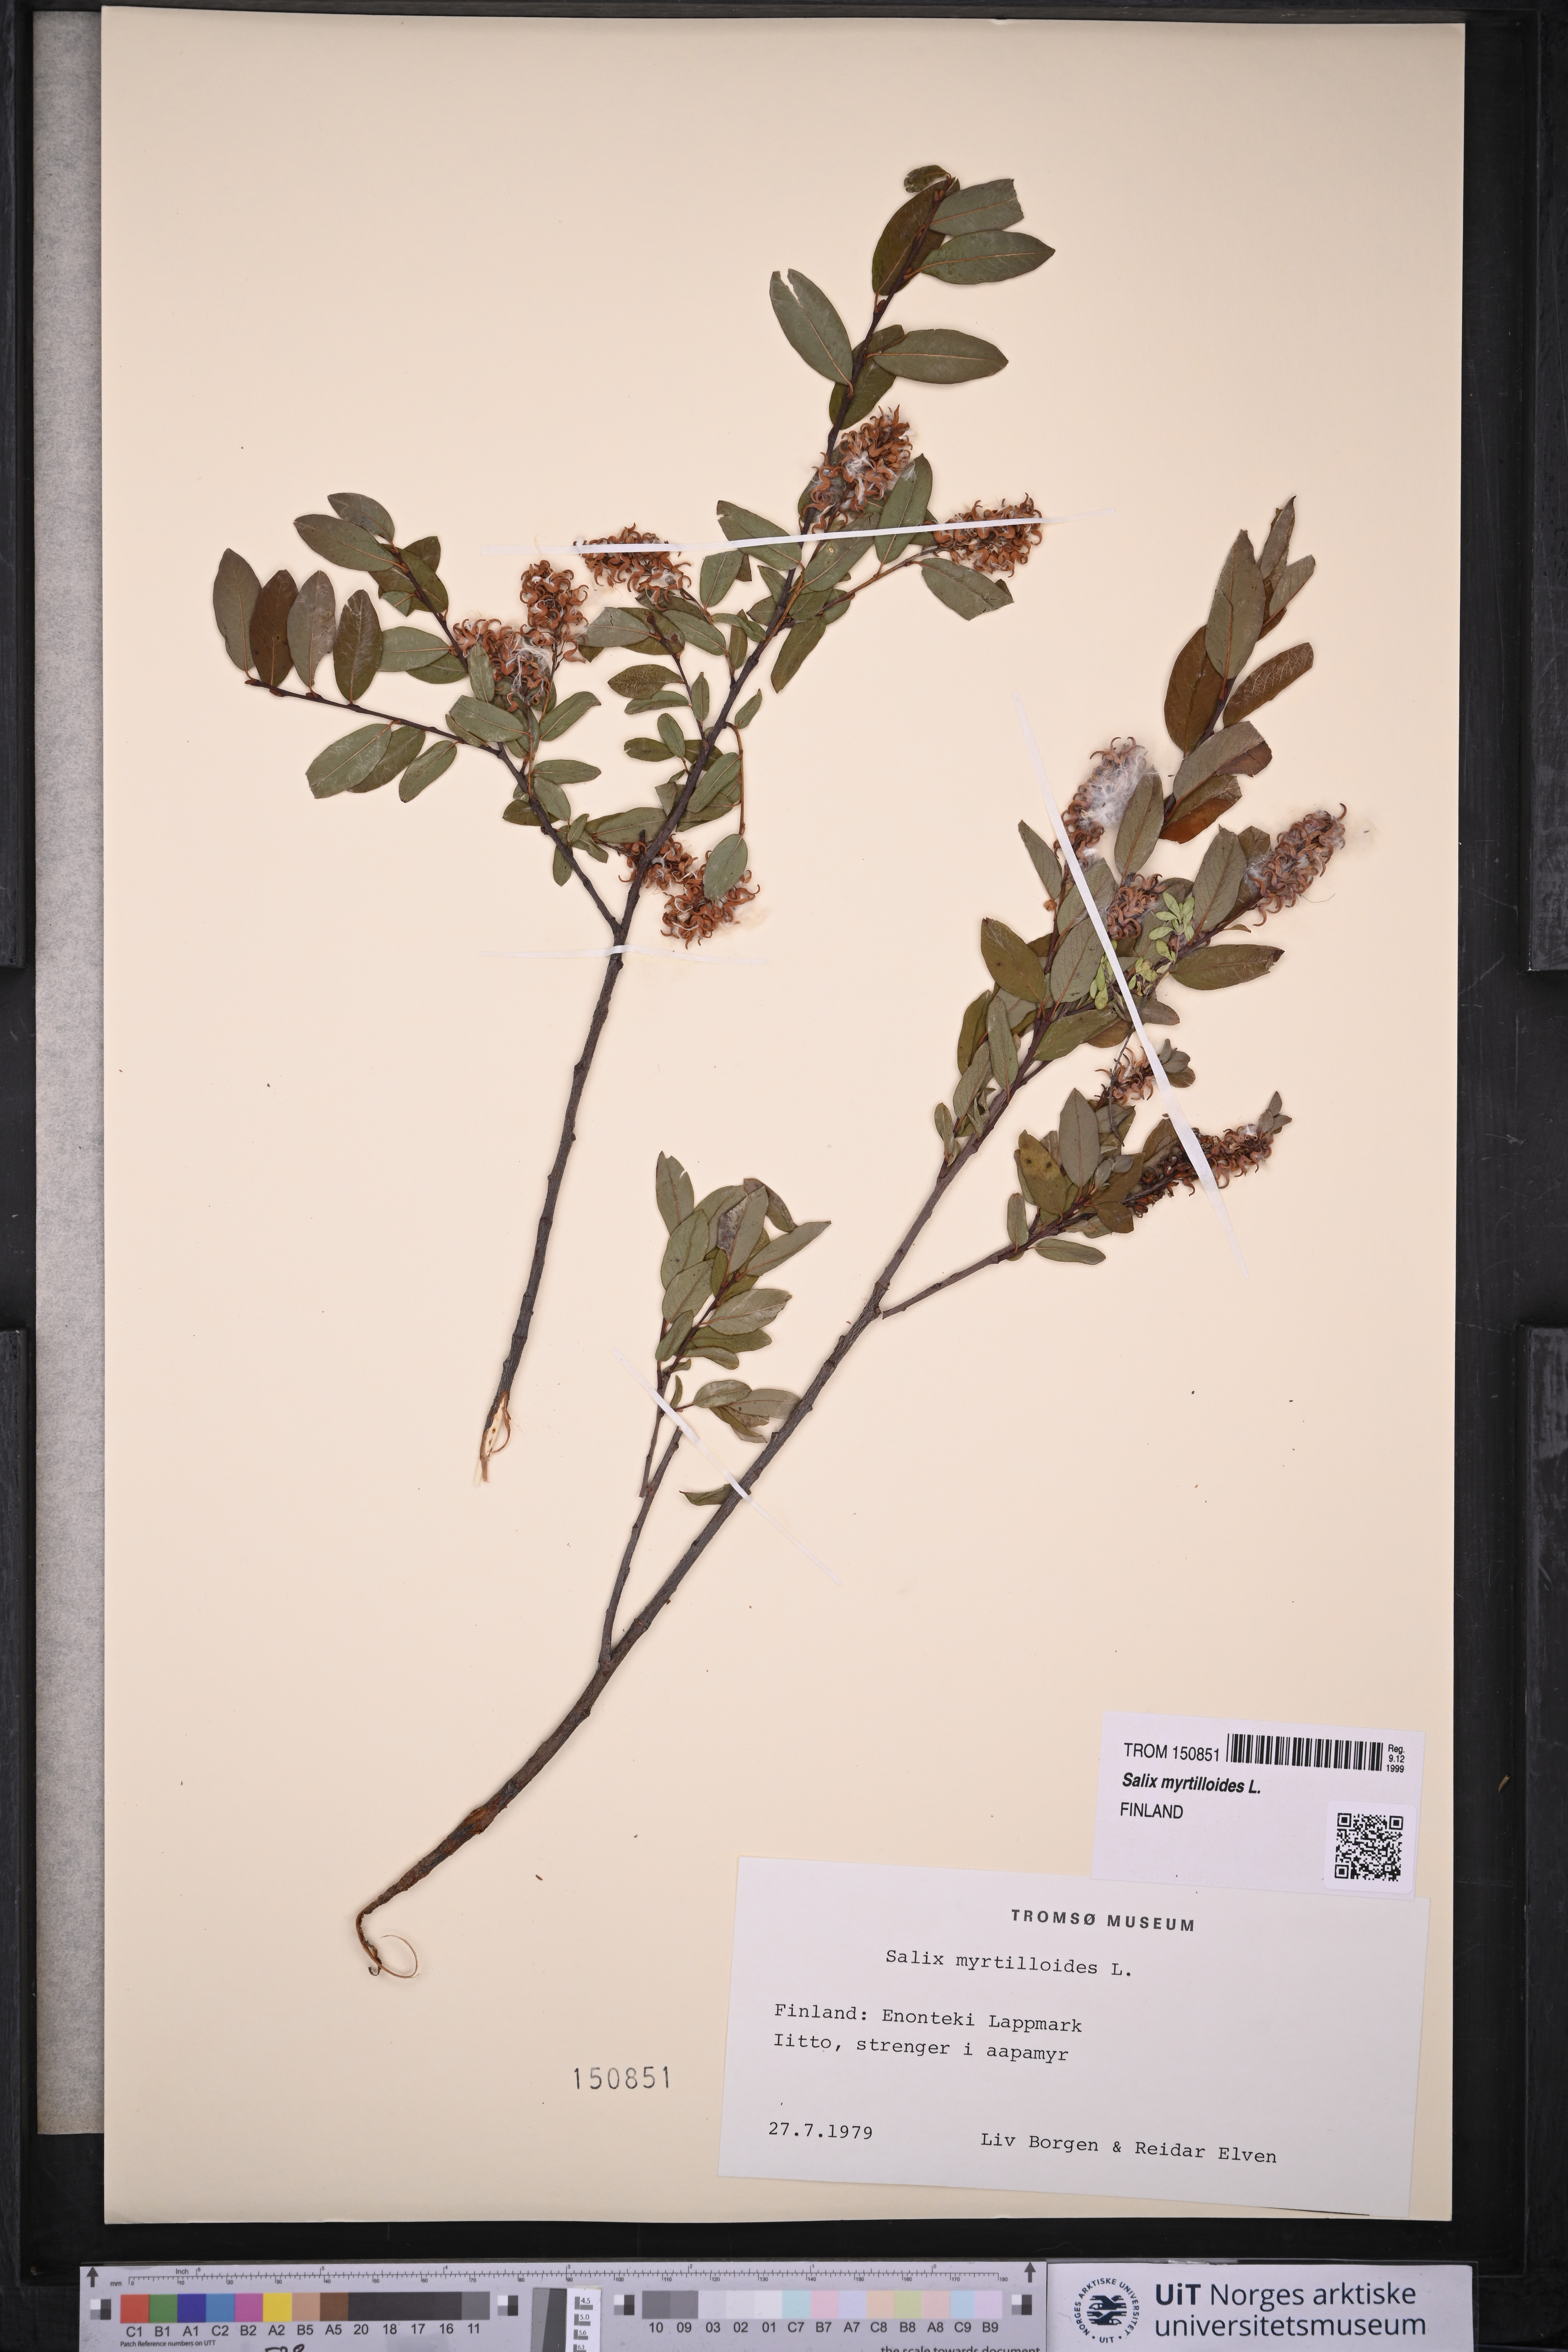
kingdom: Plantae
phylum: Tracheophyta
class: Magnoliopsida
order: Malpighiales
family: Salicaceae
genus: Salix
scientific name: Salix myrtilloides
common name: Myrtle-leaved willow
